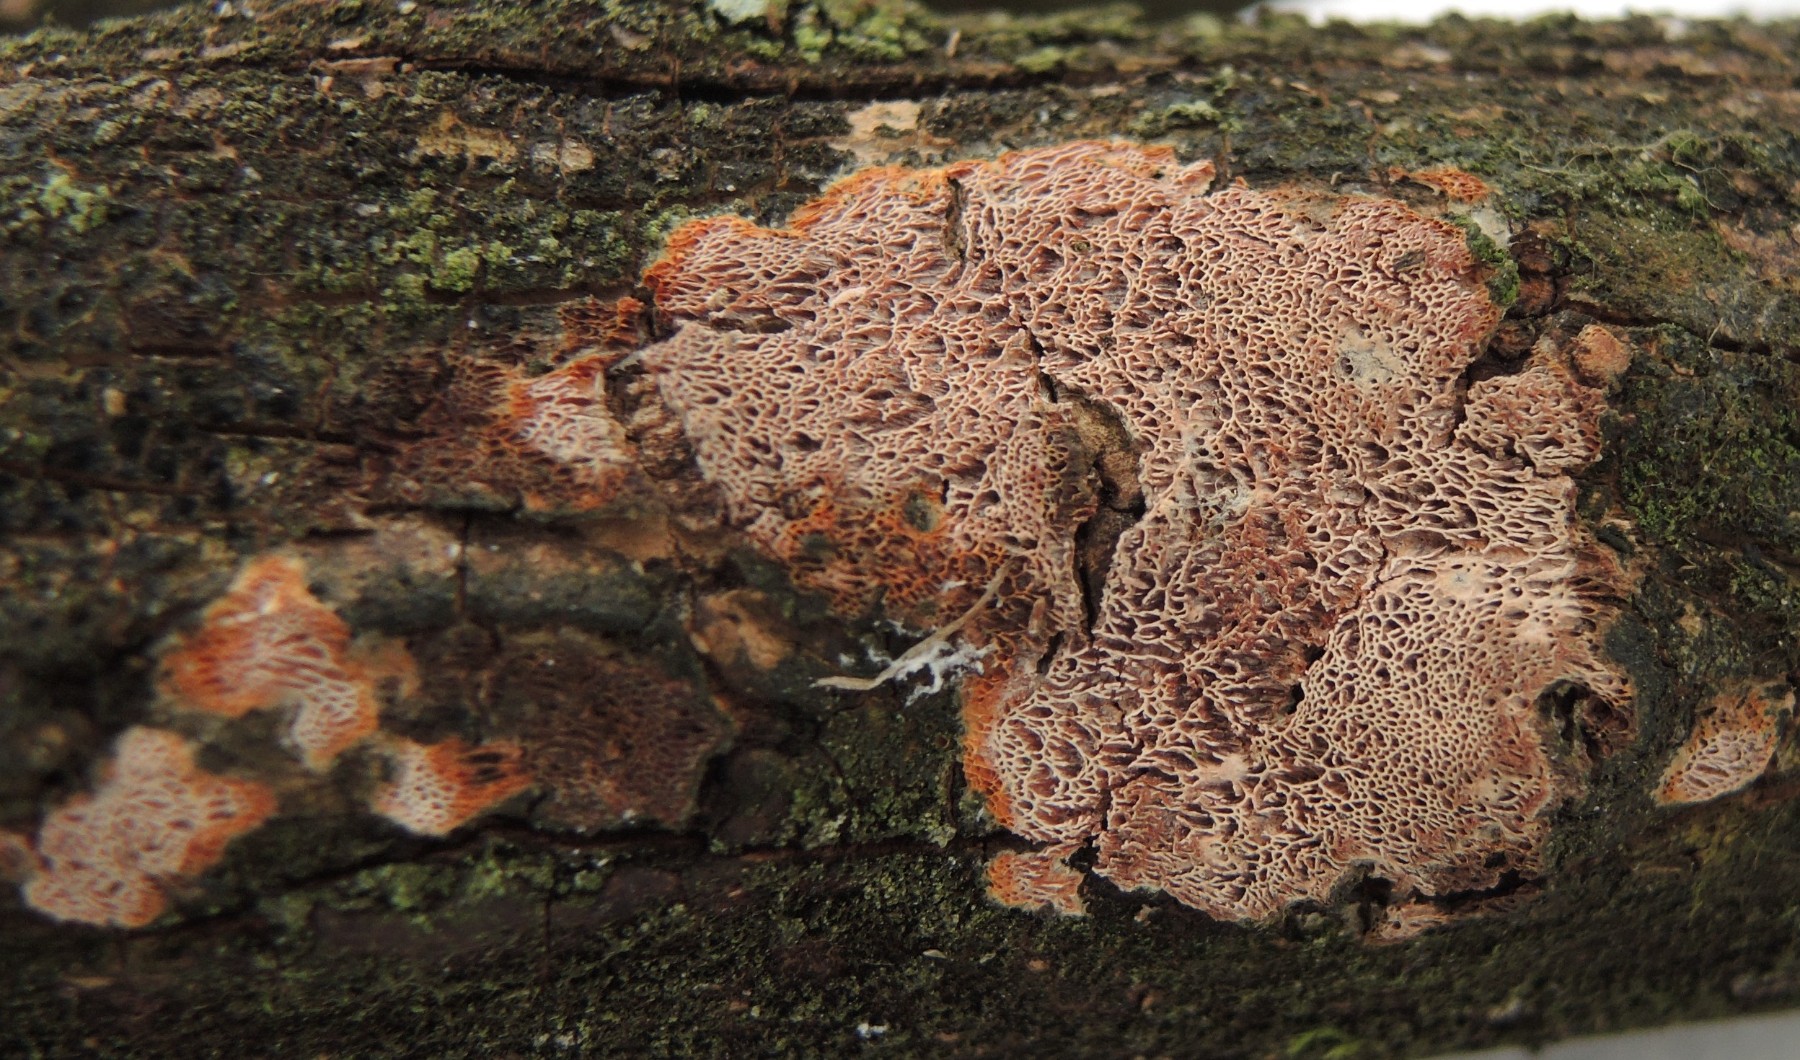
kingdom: Fungi
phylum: Basidiomycota
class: Agaricomycetes
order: Polyporales
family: Irpicaceae
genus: Ceriporia
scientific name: Ceriporia purpurea
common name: purpur-voksporesvamp
